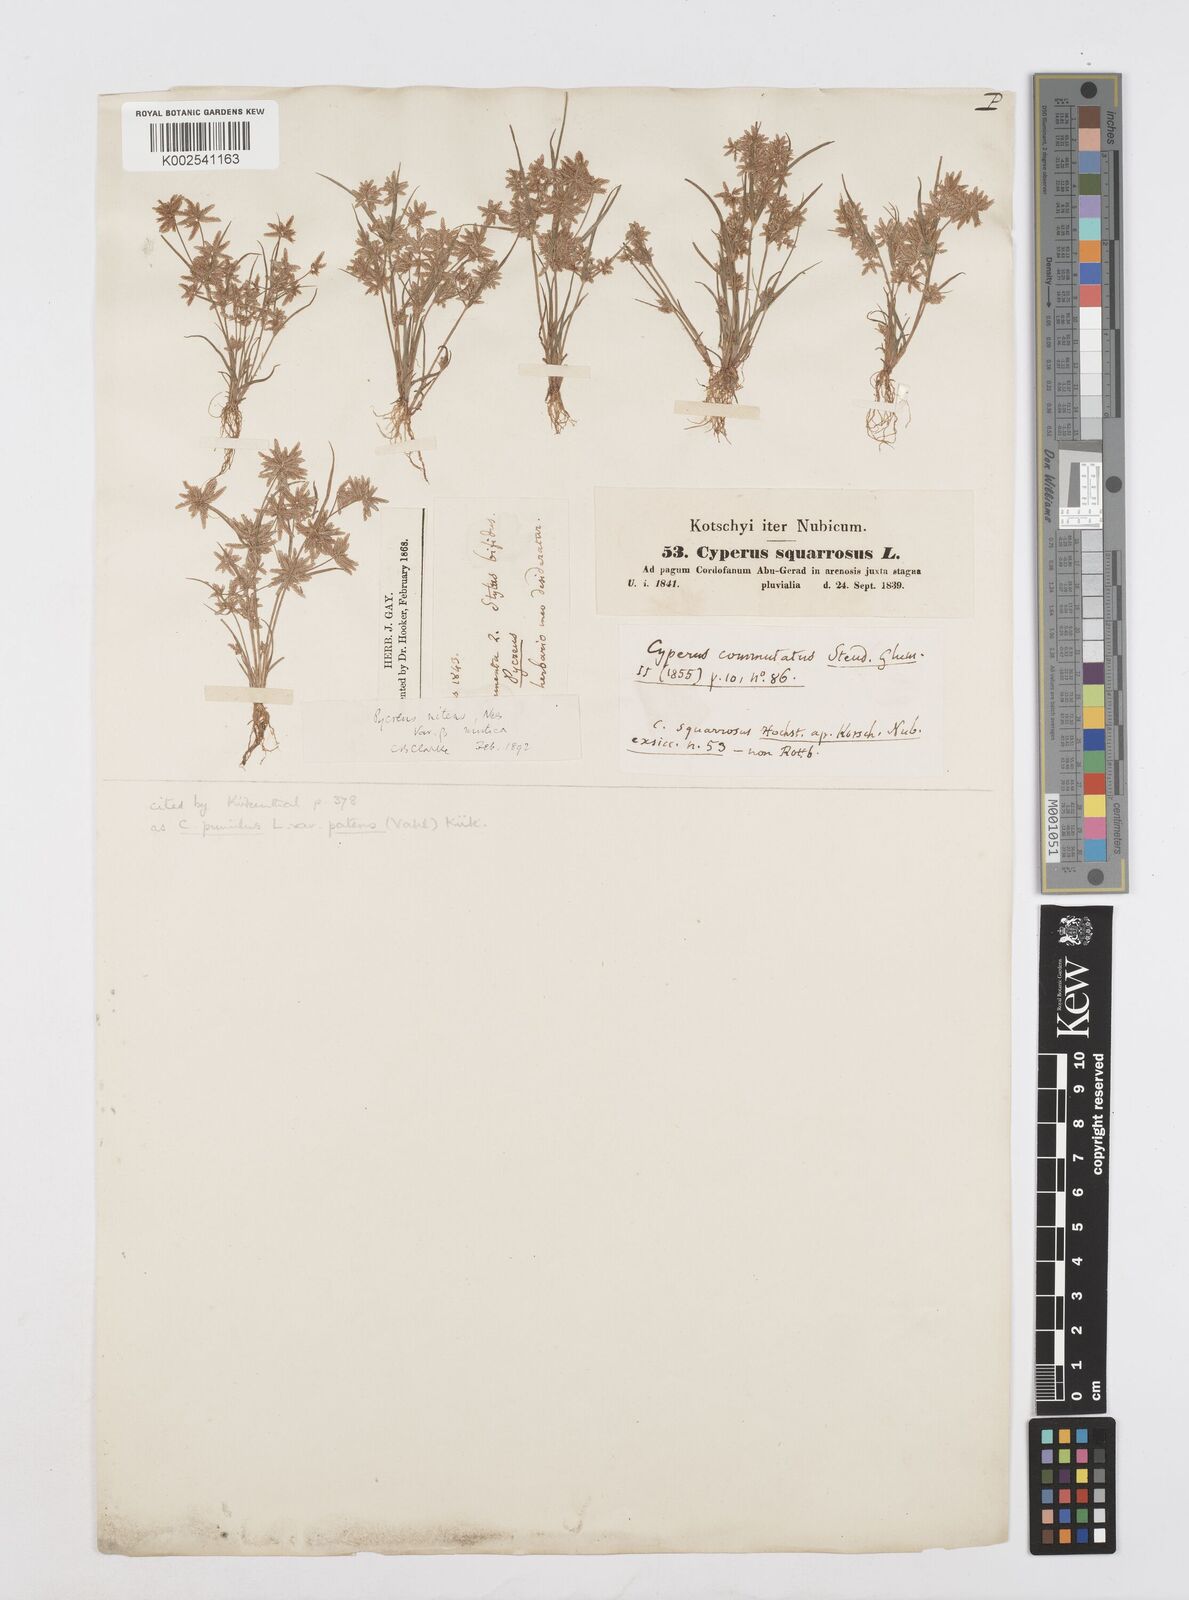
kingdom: Plantae
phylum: Tracheophyta
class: Liliopsida
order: Poales
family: Cyperaceae
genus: Cyperus
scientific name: Cyperus pumilus
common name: Low flatsedge
